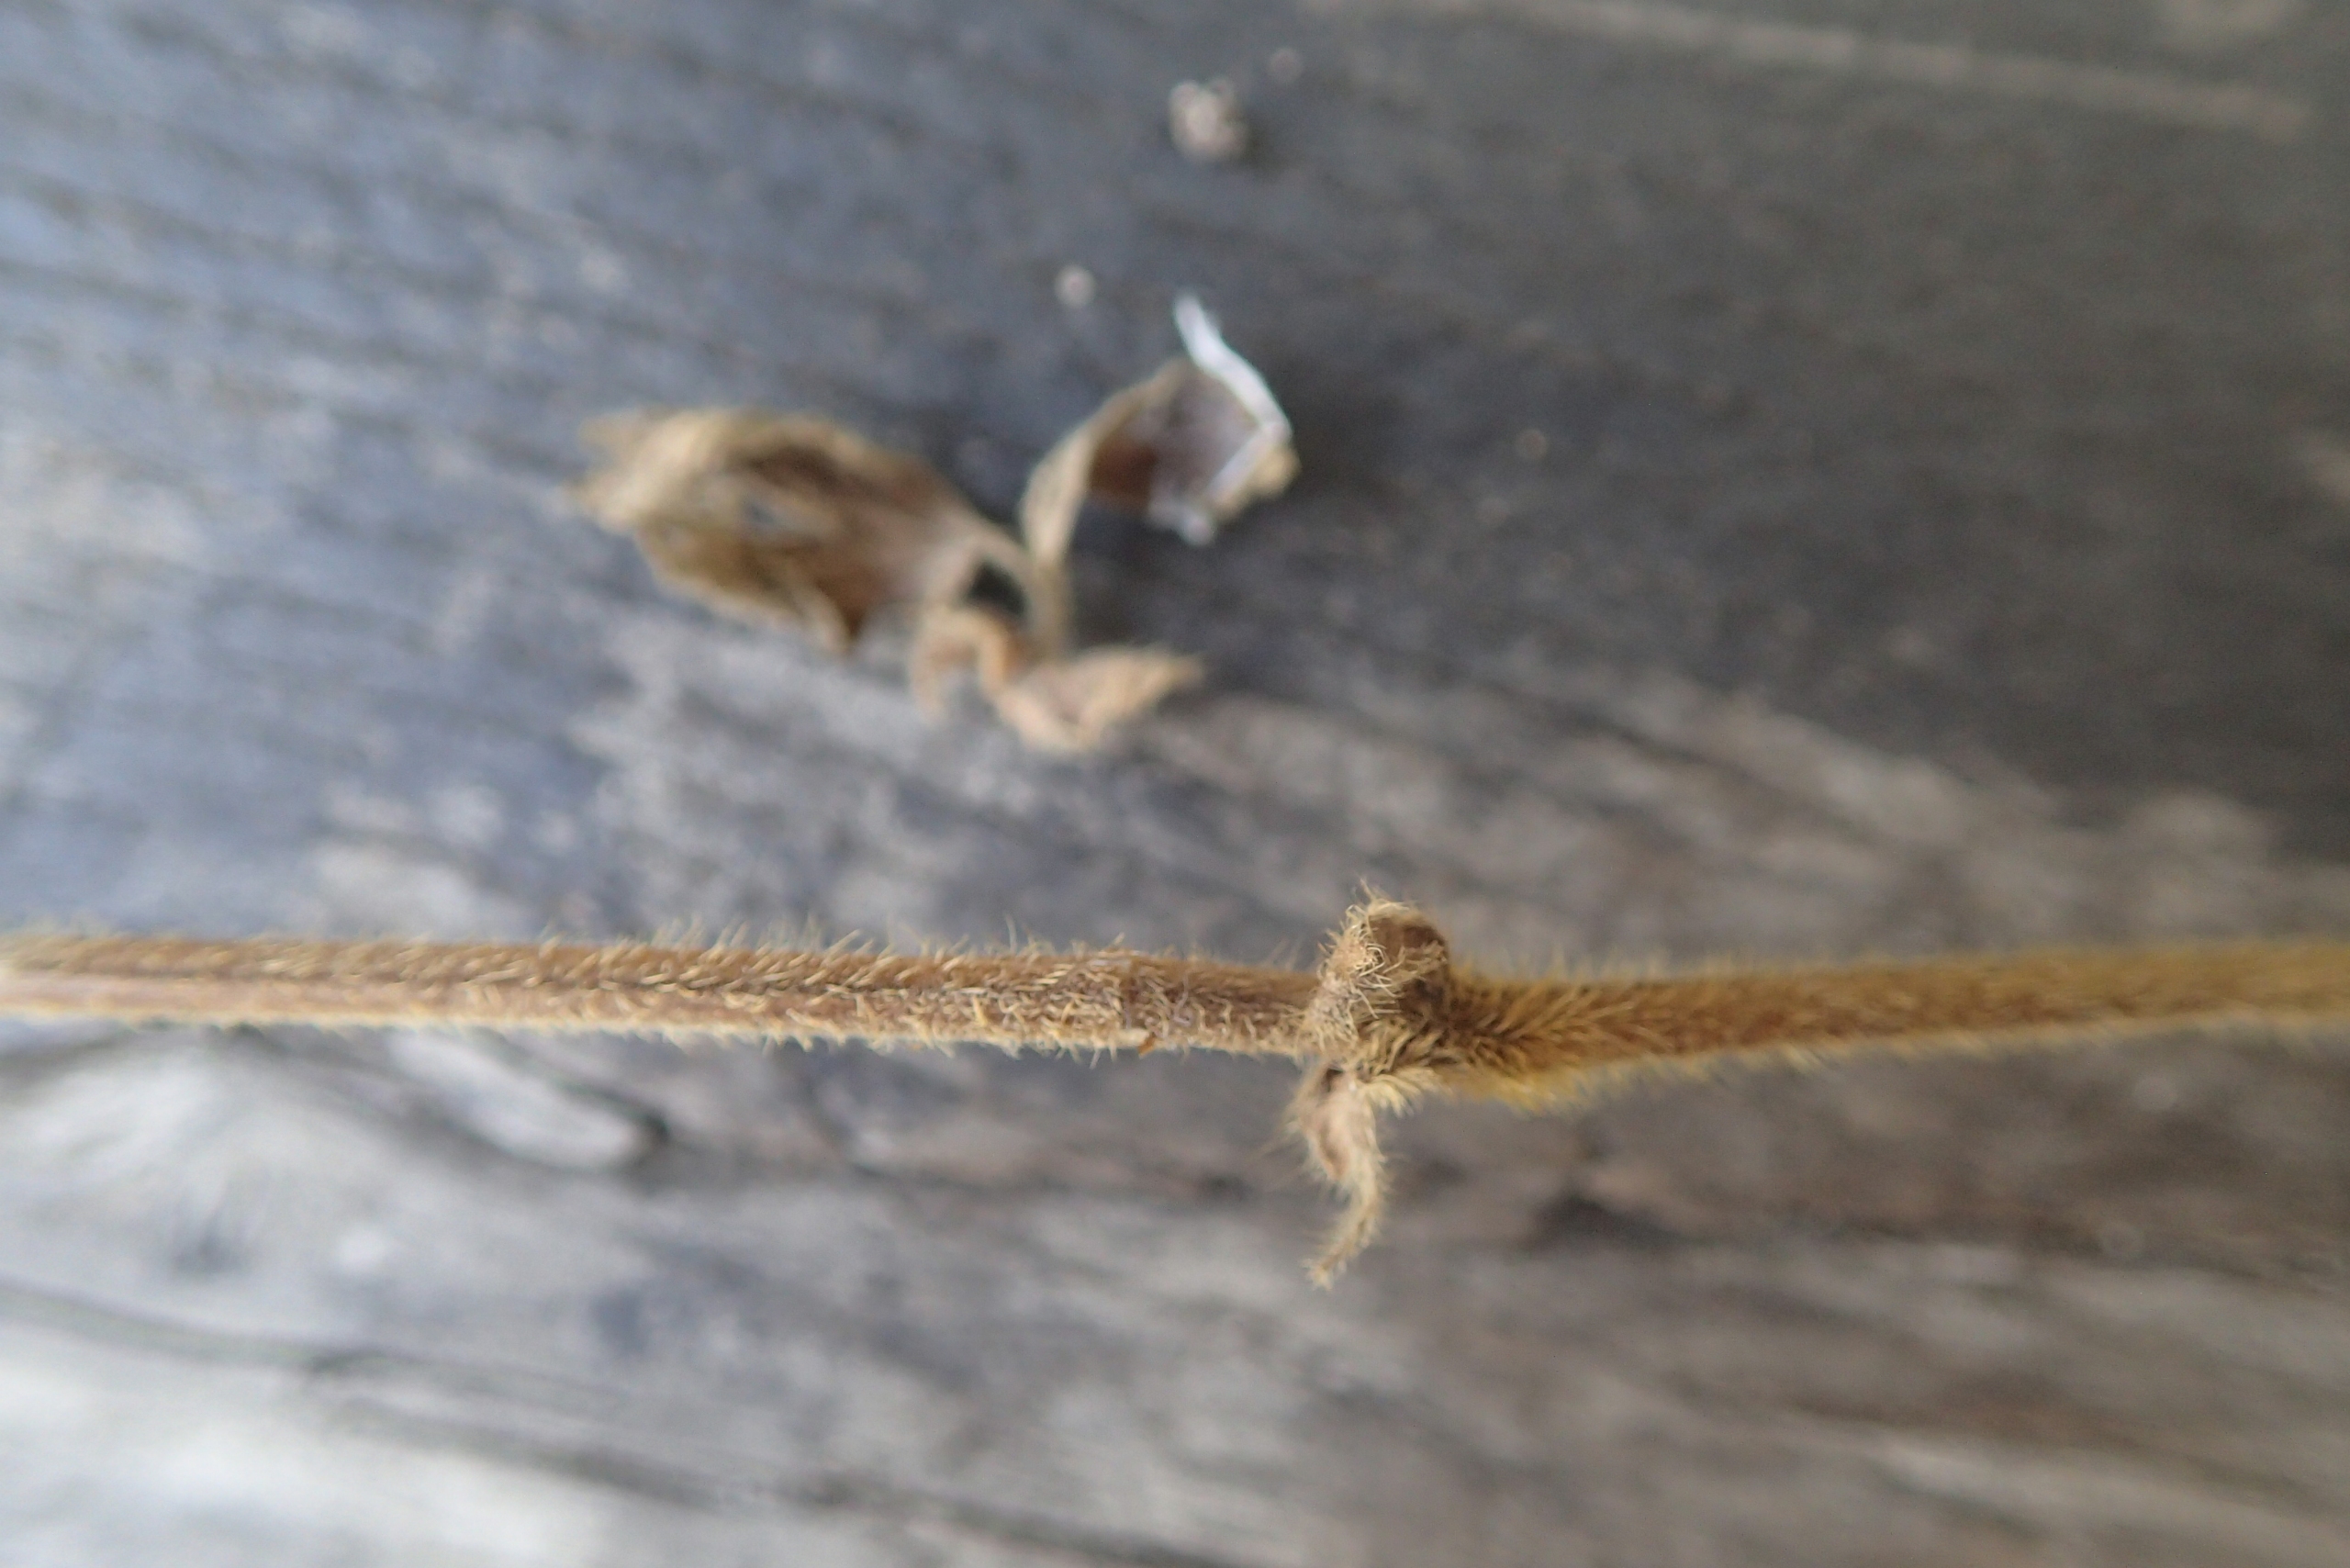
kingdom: Plantae
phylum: Tracheophyta
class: Magnoliopsida
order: Rosales
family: Rosaceae
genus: Geum
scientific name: Geum rivale
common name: Eng-nellikerod
